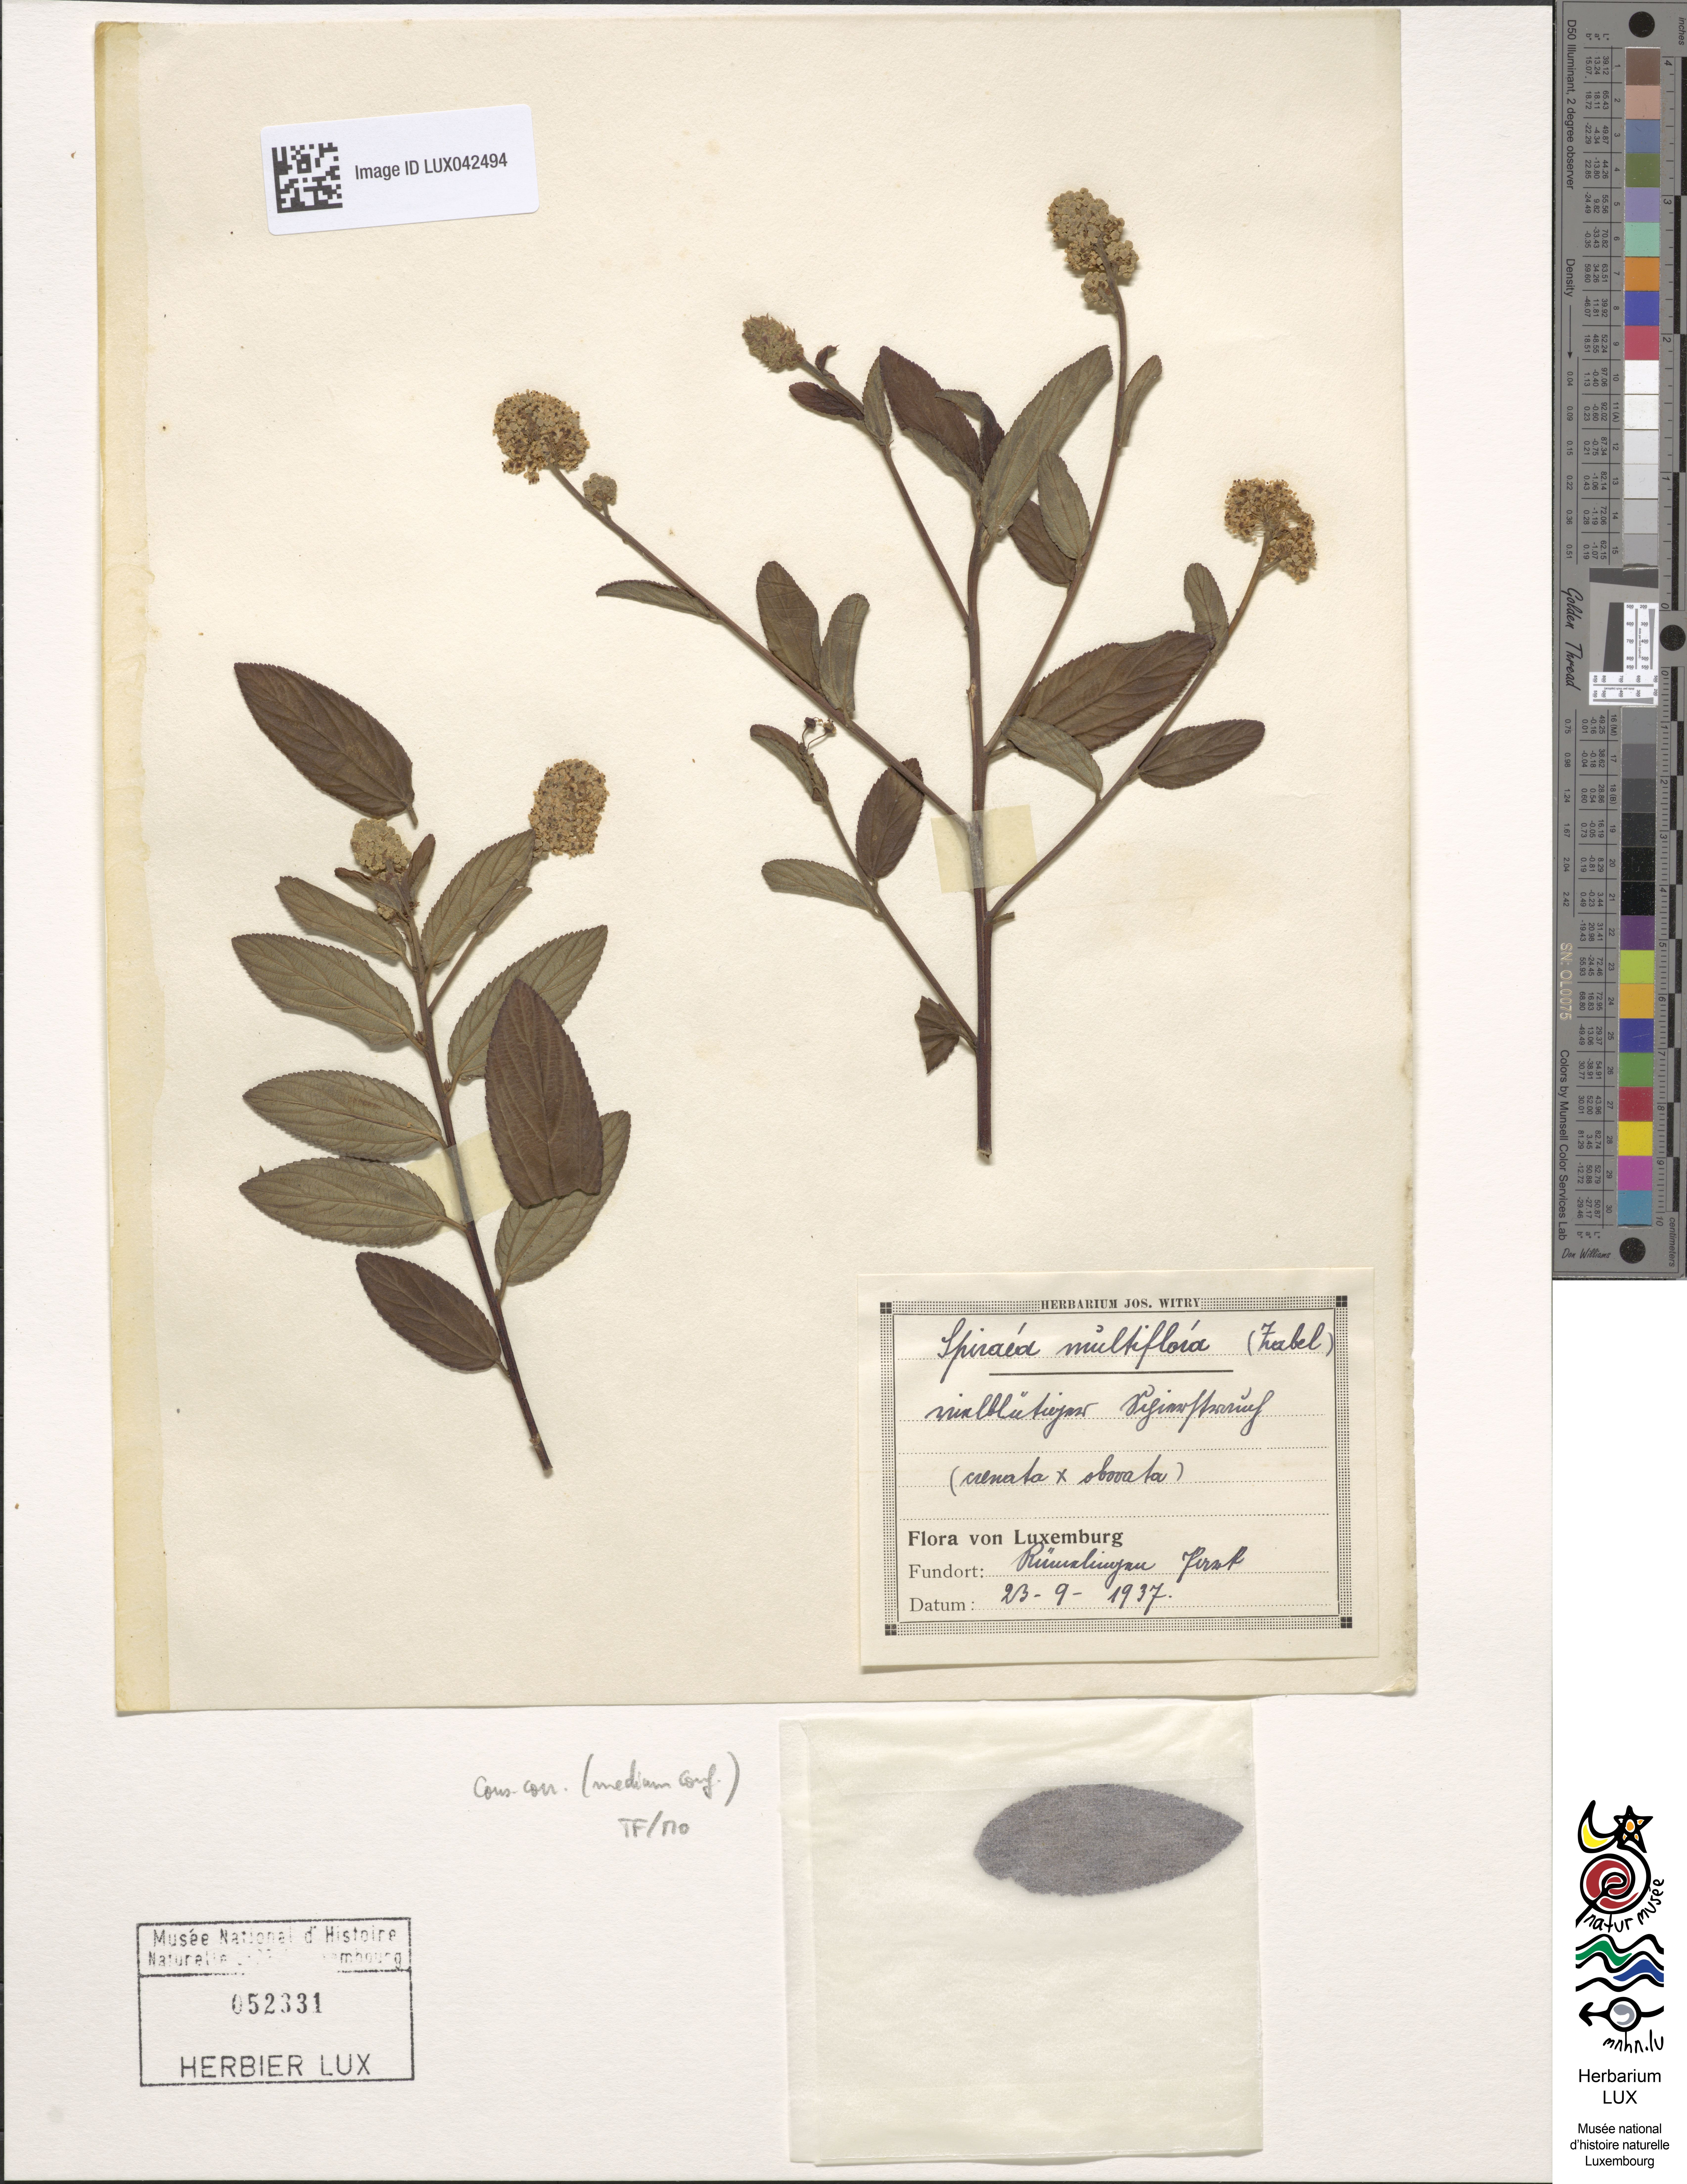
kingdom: Plantae
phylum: Tracheophyta
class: Magnoliopsida
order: Rosales
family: Rosaceae
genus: Spiraea
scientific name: Spiraea multiflora
